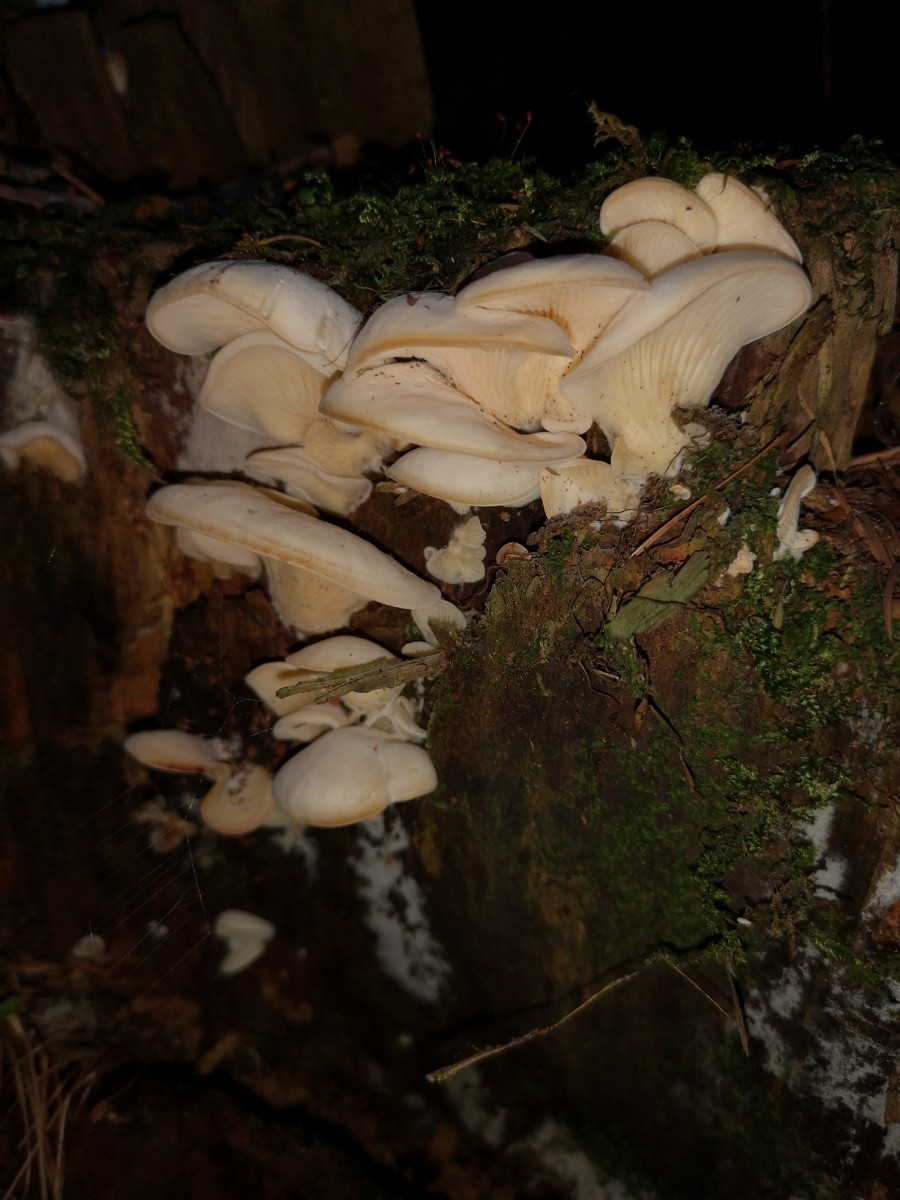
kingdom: Fungi
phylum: Basidiomycota
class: Agaricomycetes
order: Agaricales
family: Marasmiaceae
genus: Pleurocybella
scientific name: Pleurocybella porrigens
